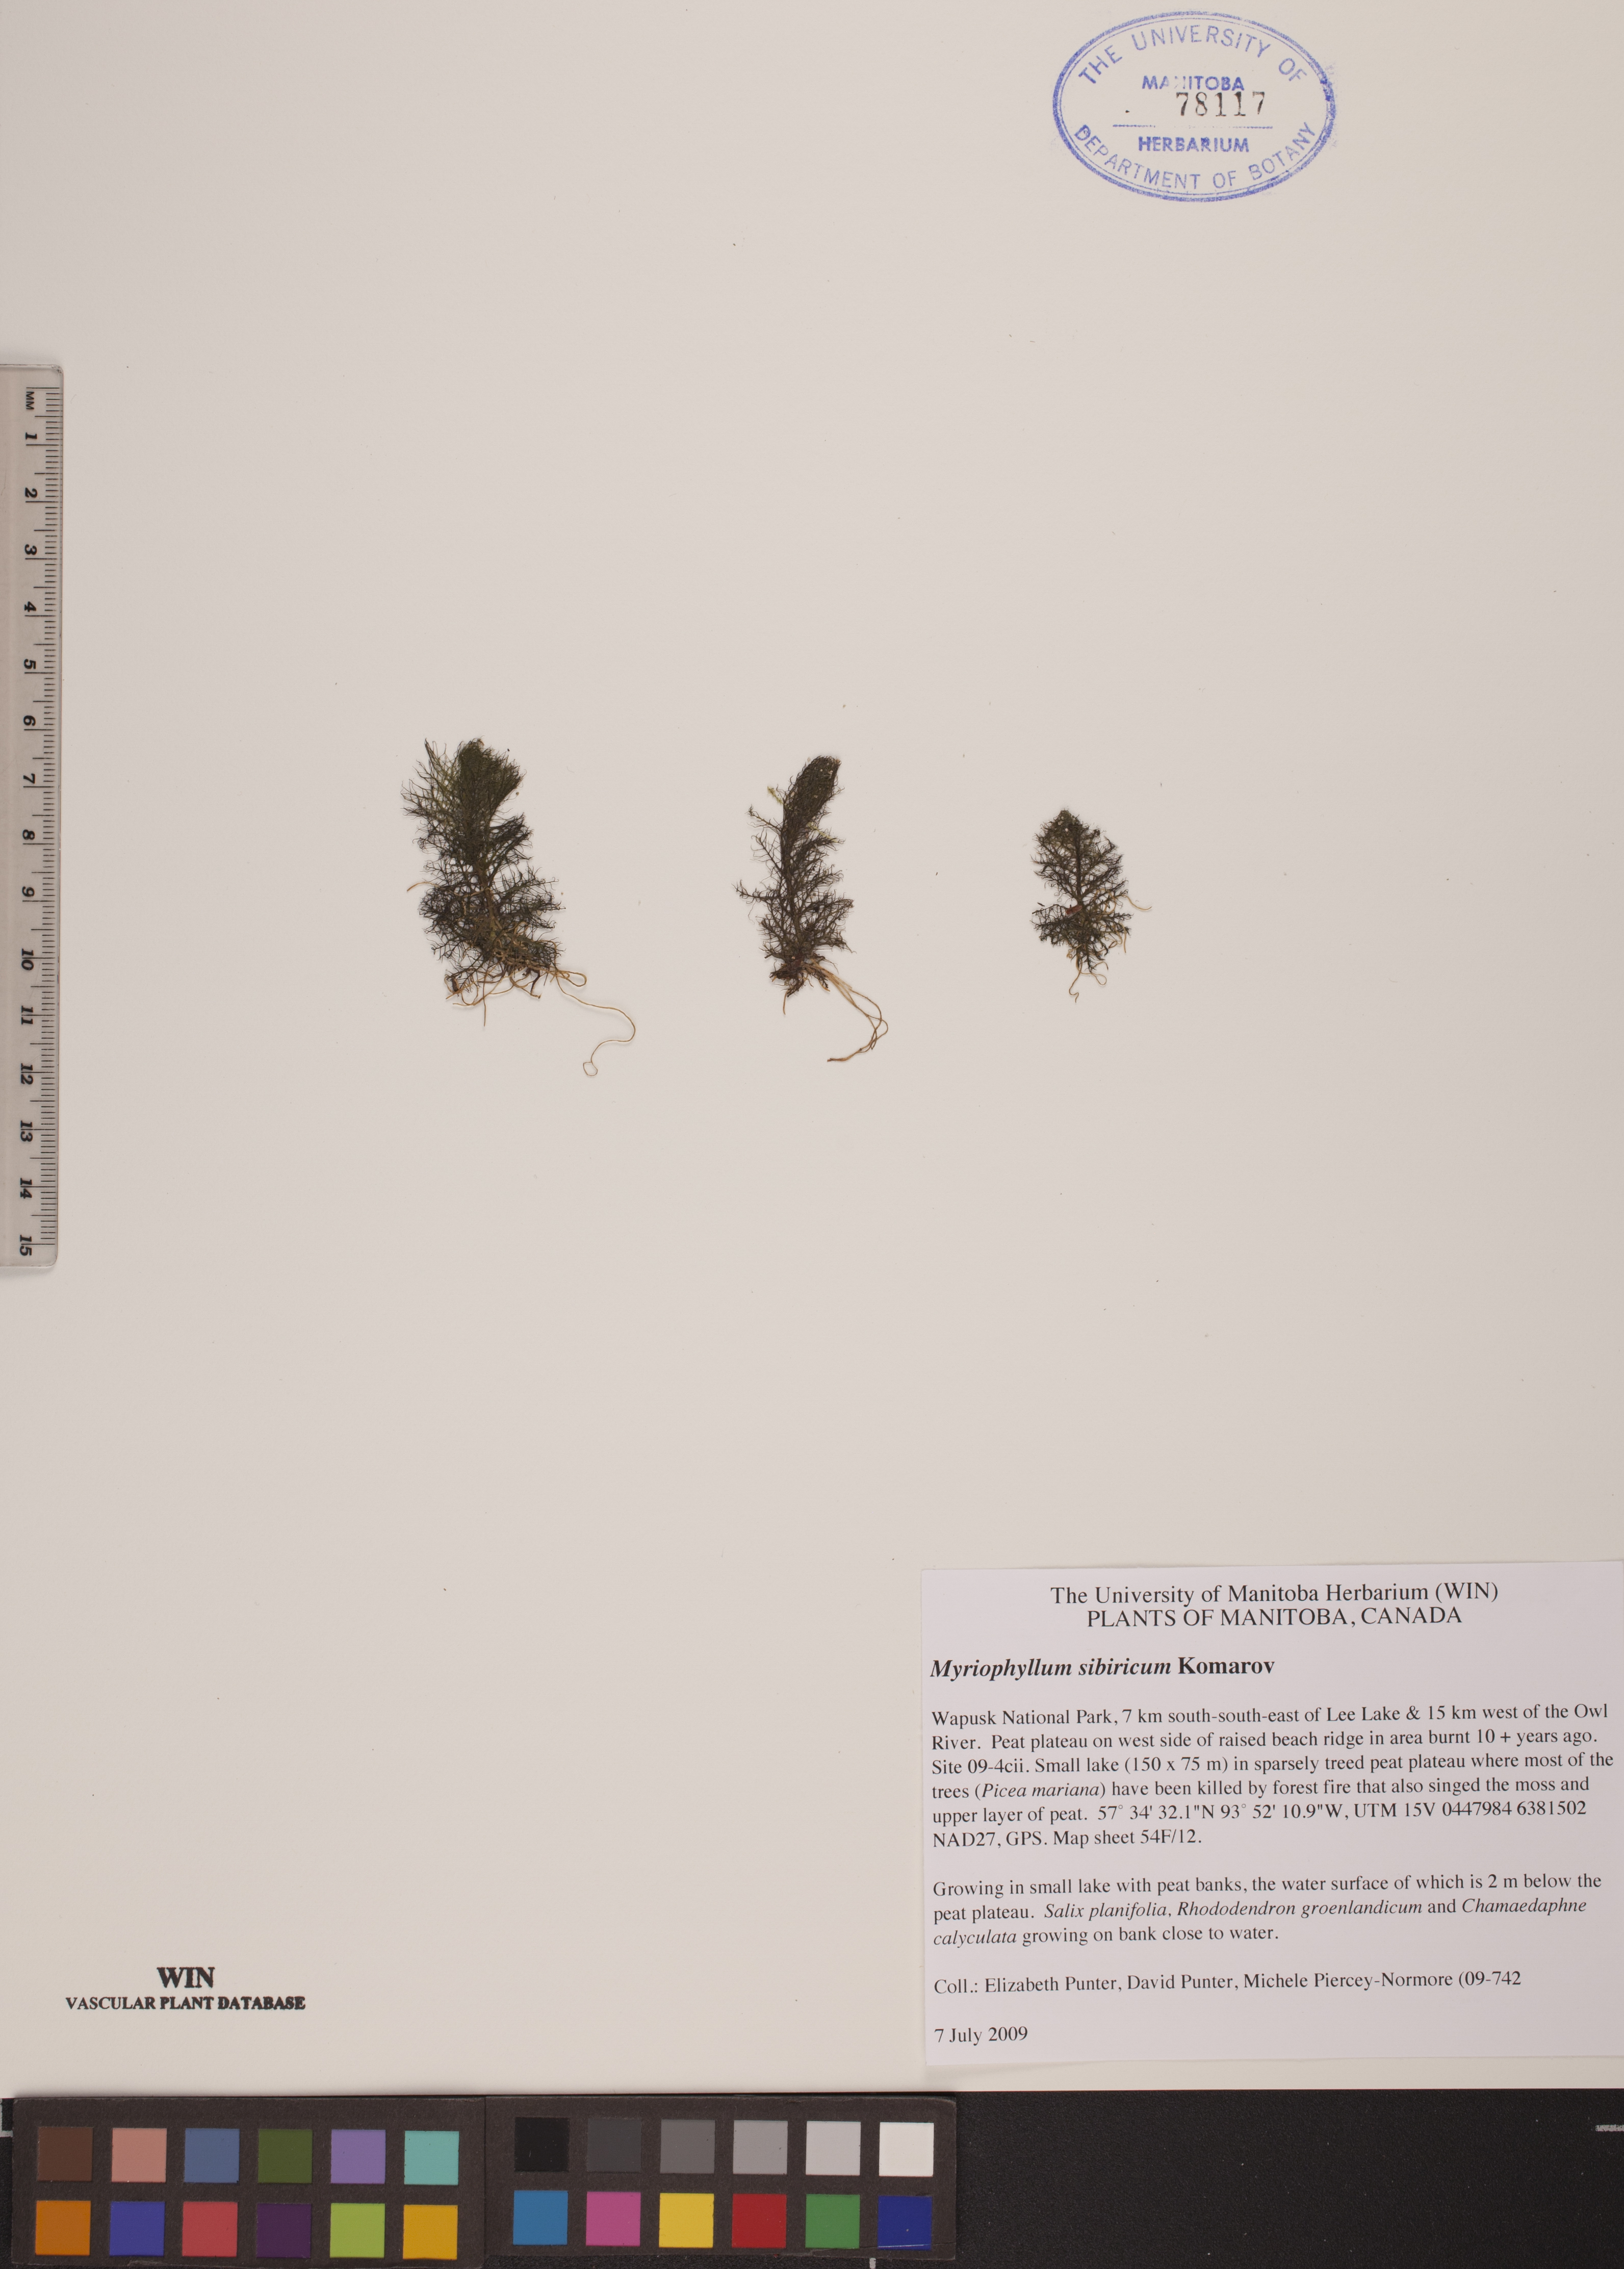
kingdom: Plantae
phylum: Tracheophyta
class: Magnoliopsida
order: Saxifragales
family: Haloragaceae
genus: Myriophyllum
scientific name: Myriophyllum sibiricum
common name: Siberian water-milfoil
